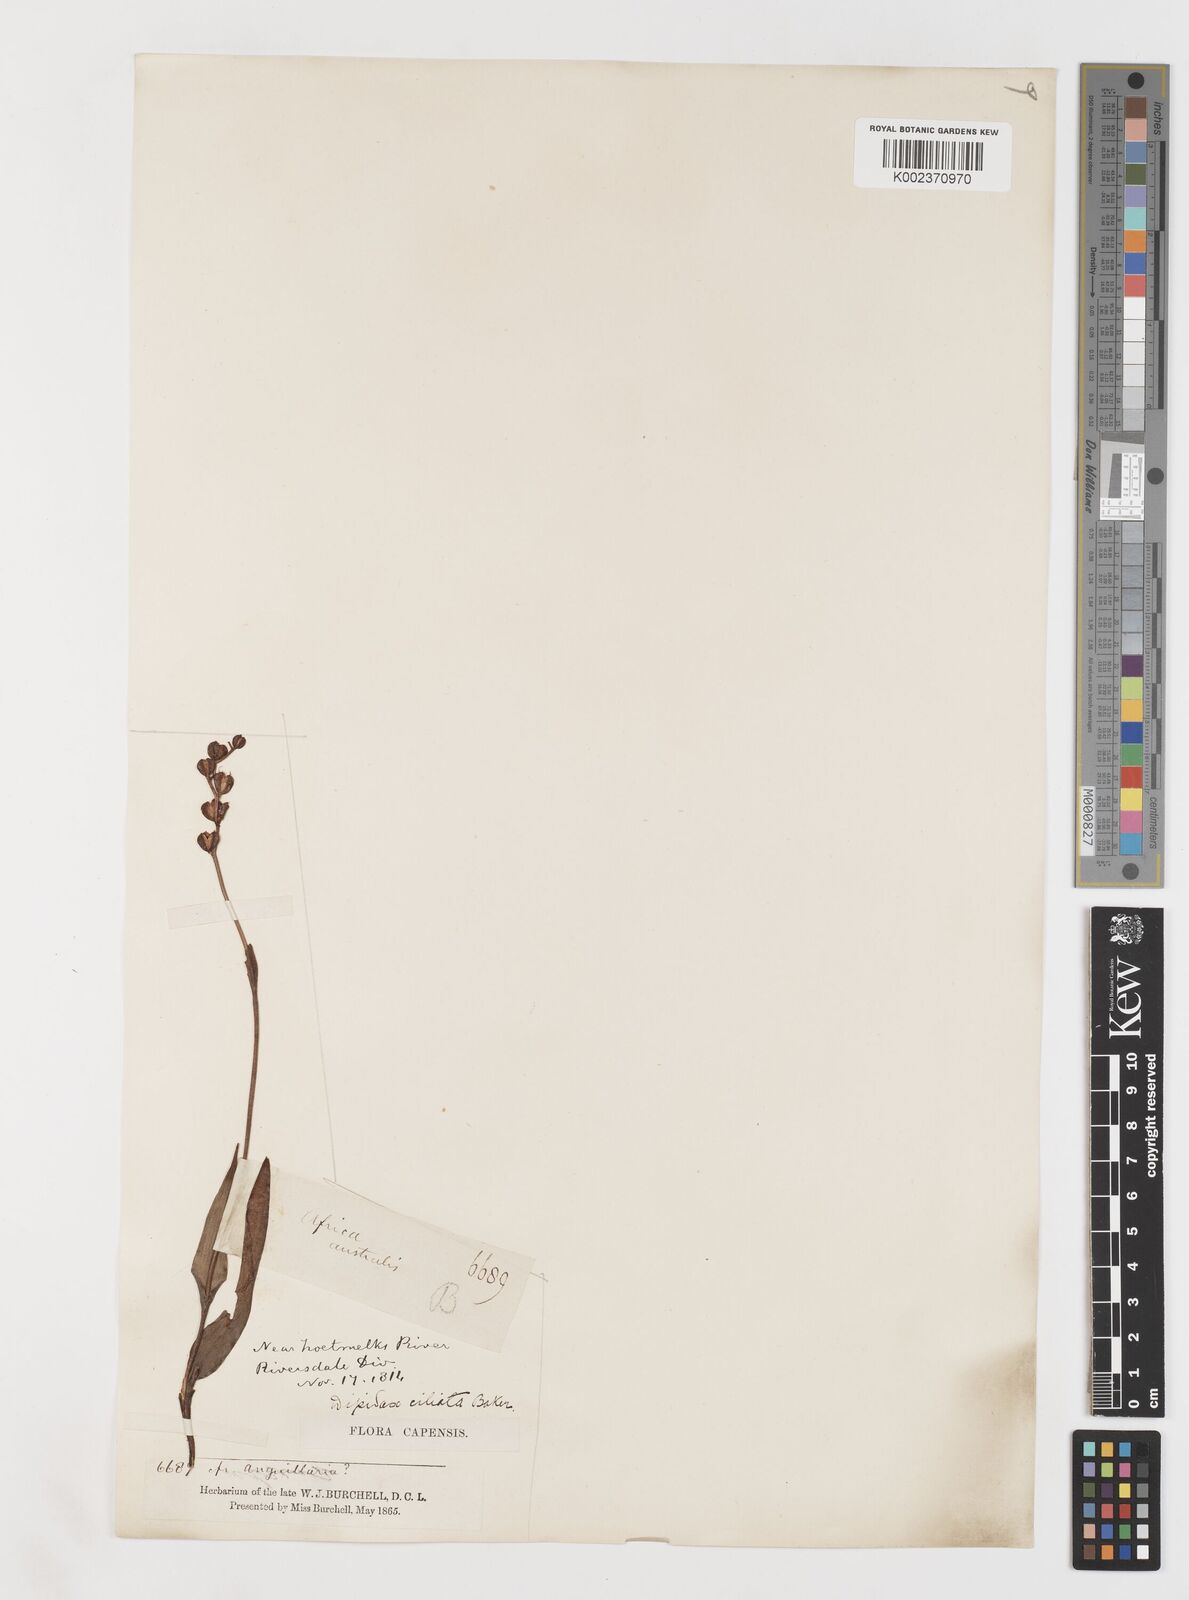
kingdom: Plantae
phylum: Tracheophyta
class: Liliopsida
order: Liliales
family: Colchicaceae
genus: Wurmbea
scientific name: Wurmbea punctata
